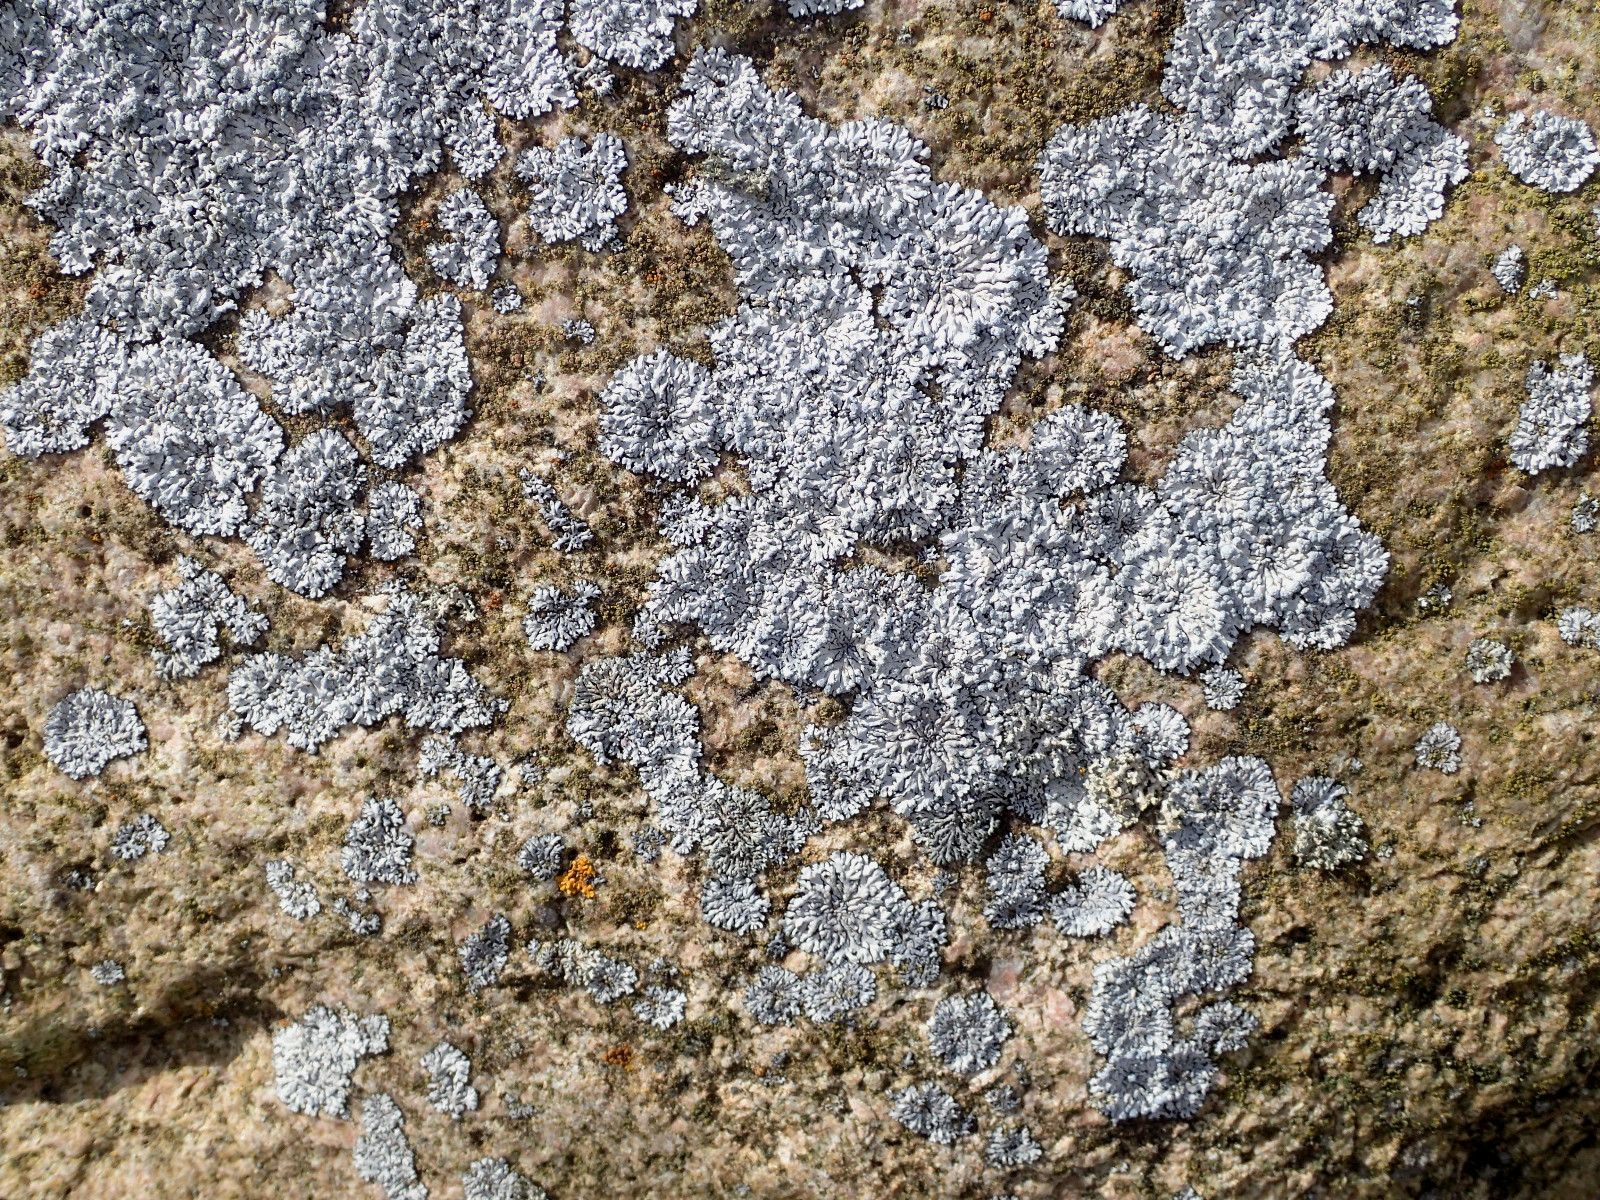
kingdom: Fungi
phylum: Ascomycota
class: Lecanoromycetes
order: Caliciales
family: Physciaceae
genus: Physcia
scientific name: Physcia caesia
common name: blågrå rosetlav
